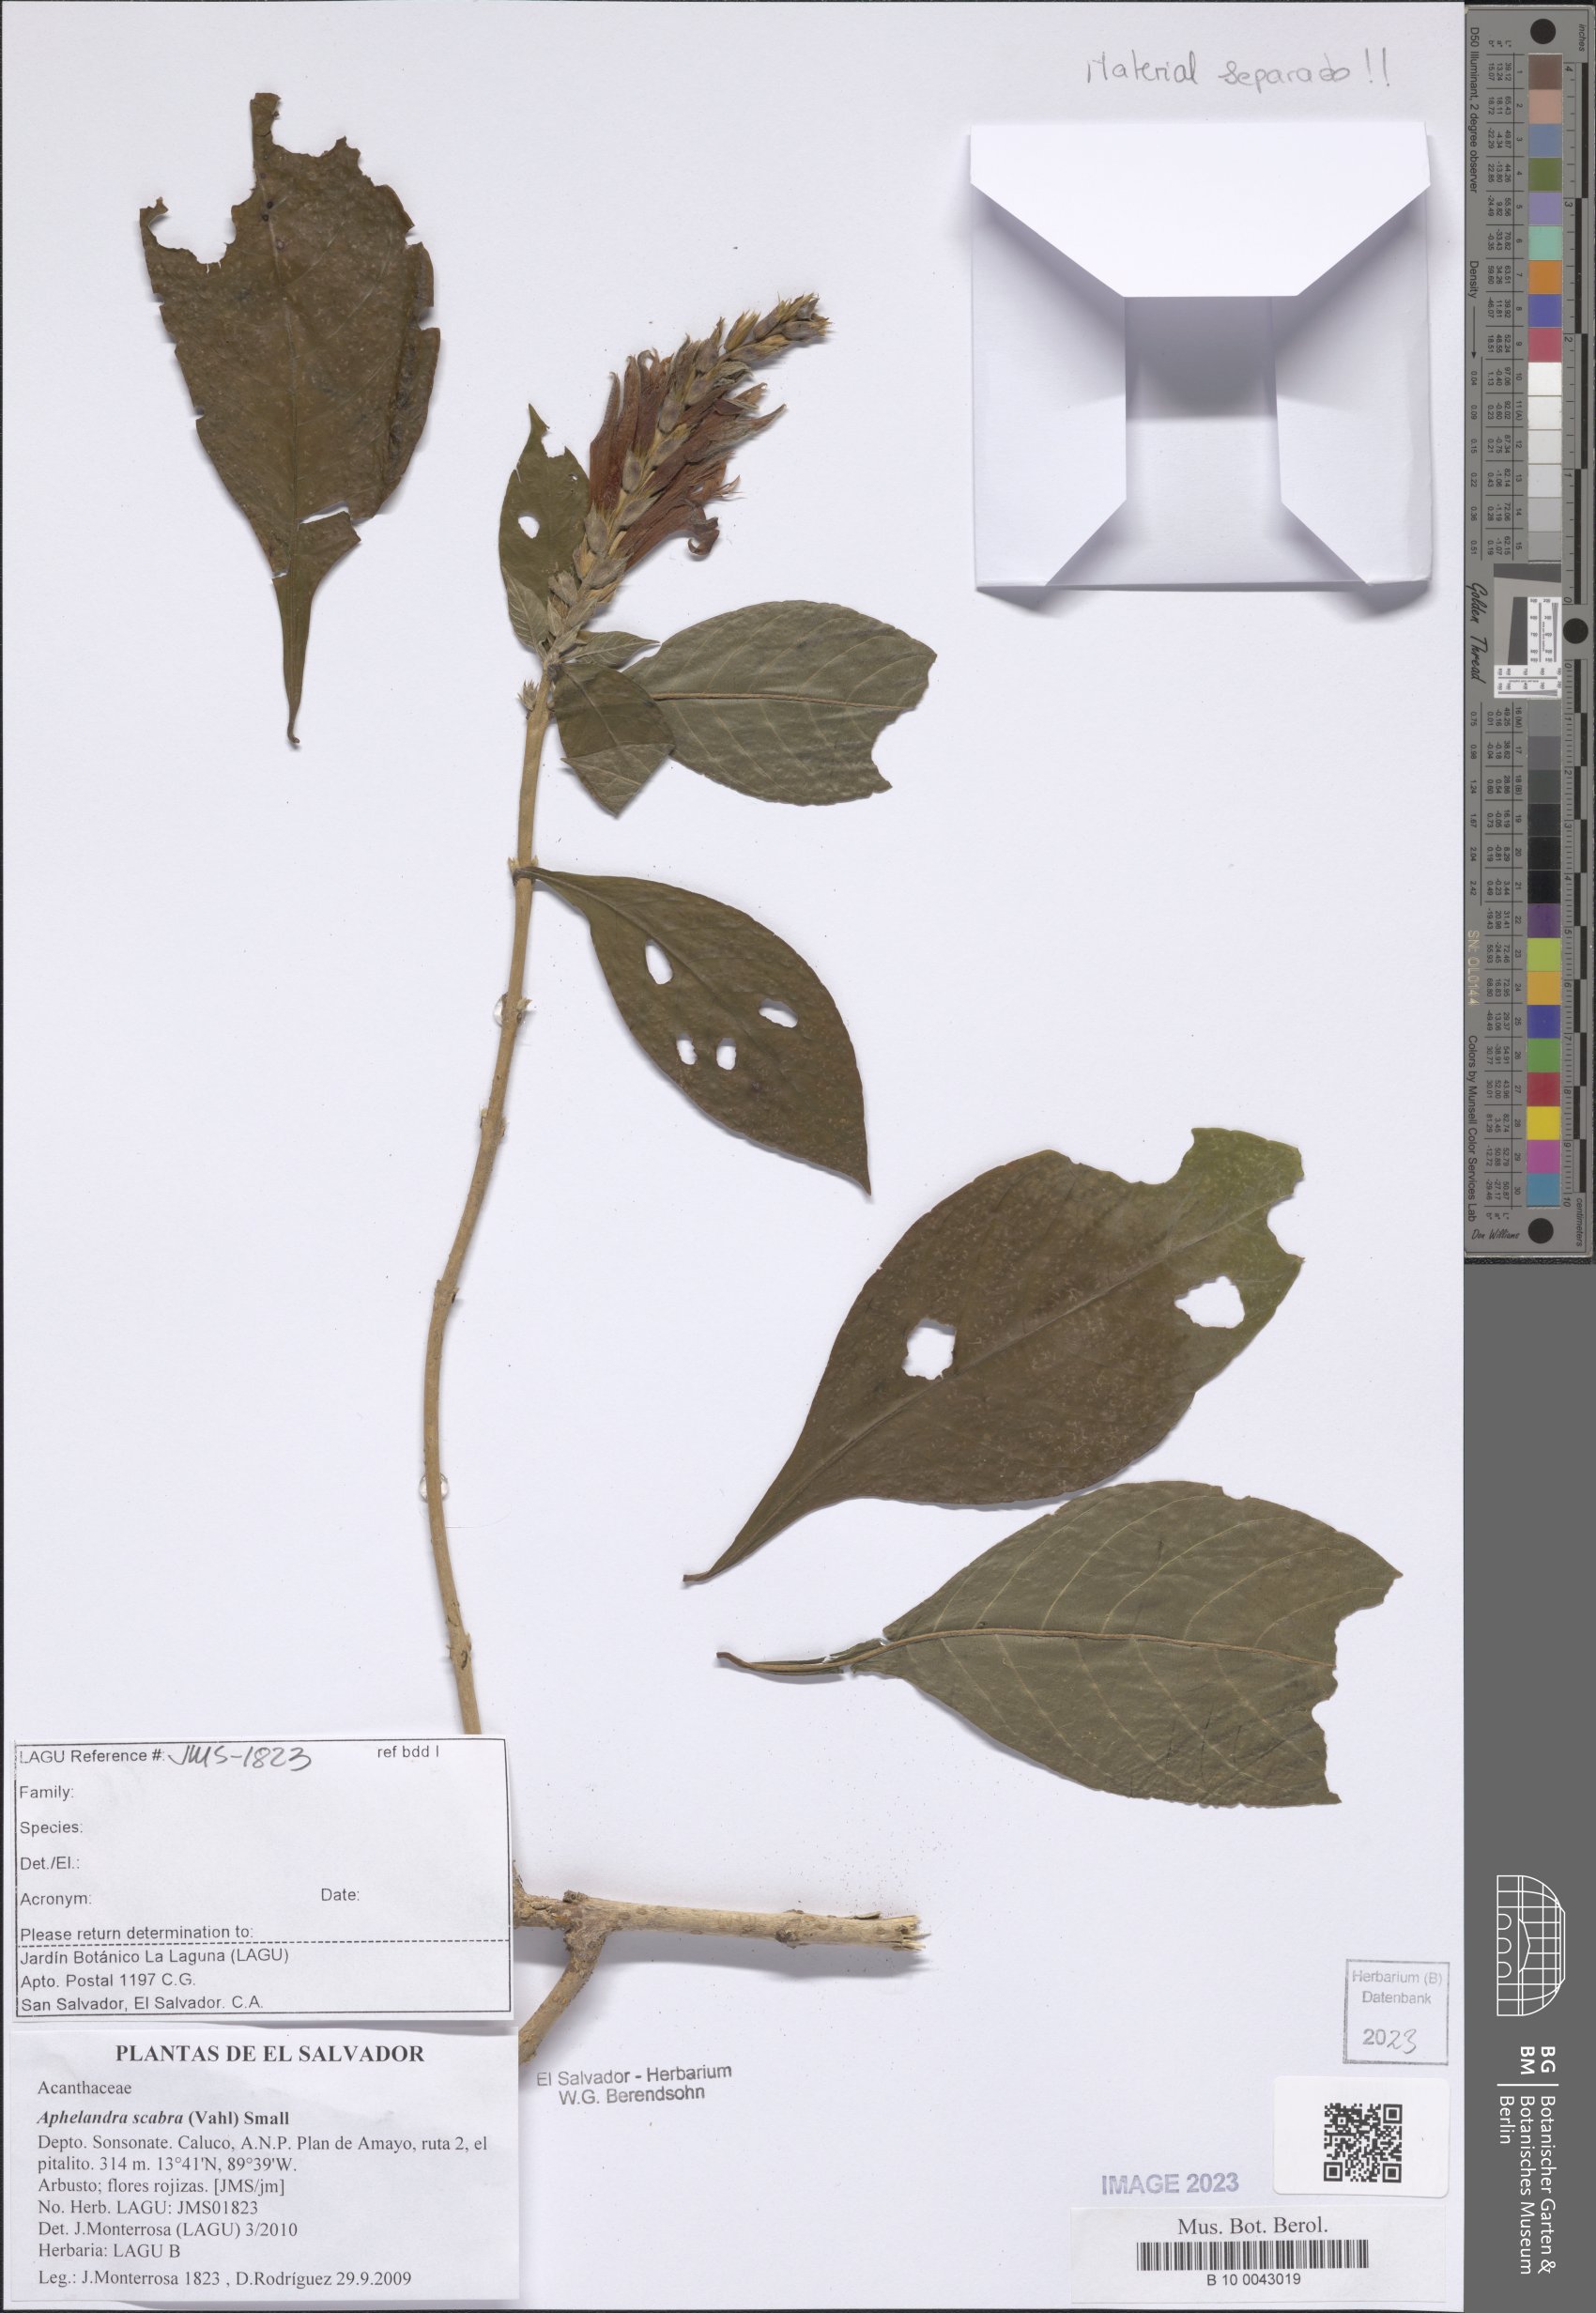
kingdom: Plantae
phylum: Tracheophyta
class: Magnoliopsida
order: Lamiales
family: Acanthaceae
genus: Aphelandra
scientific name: Aphelandra scabra
